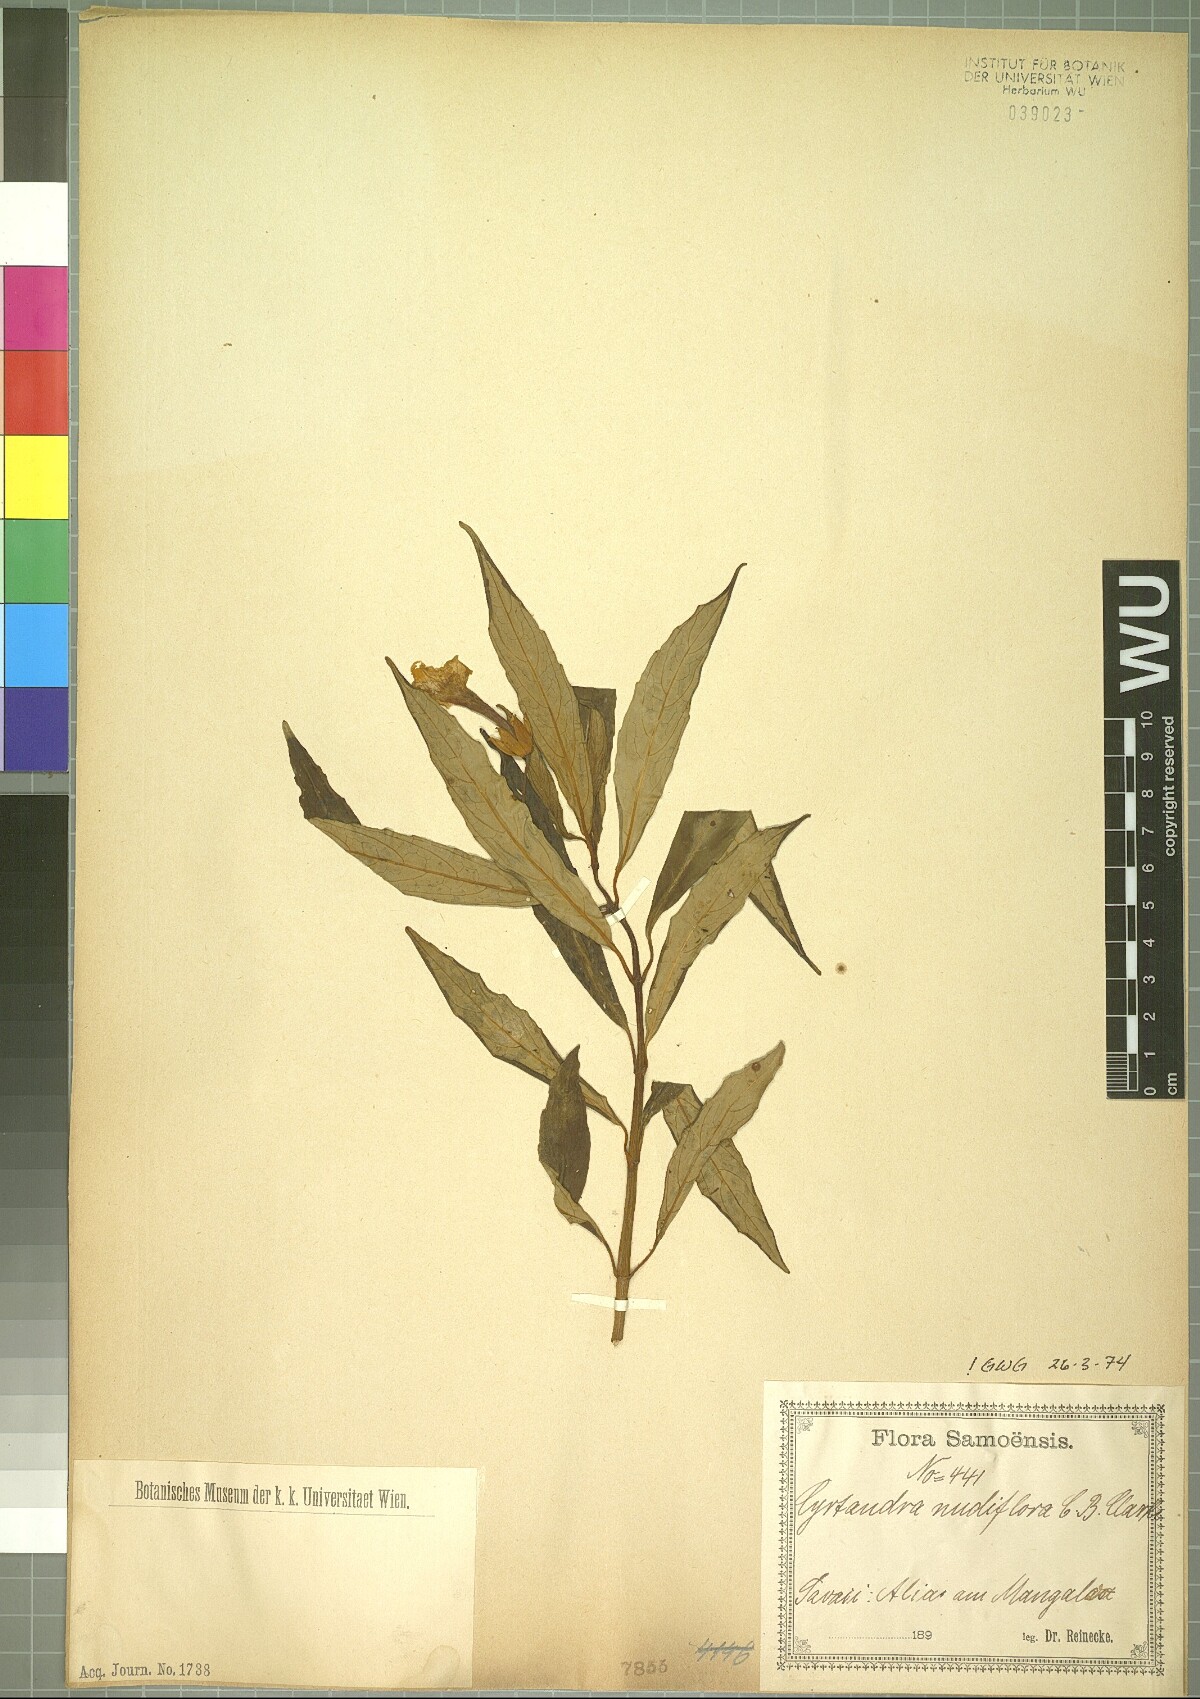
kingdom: Plantae
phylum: Tracheophyta
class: Magnoliopsida
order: Lamiales
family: Gesneriaceae
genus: Cyrtandra
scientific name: Cyrtandra nudiflora
